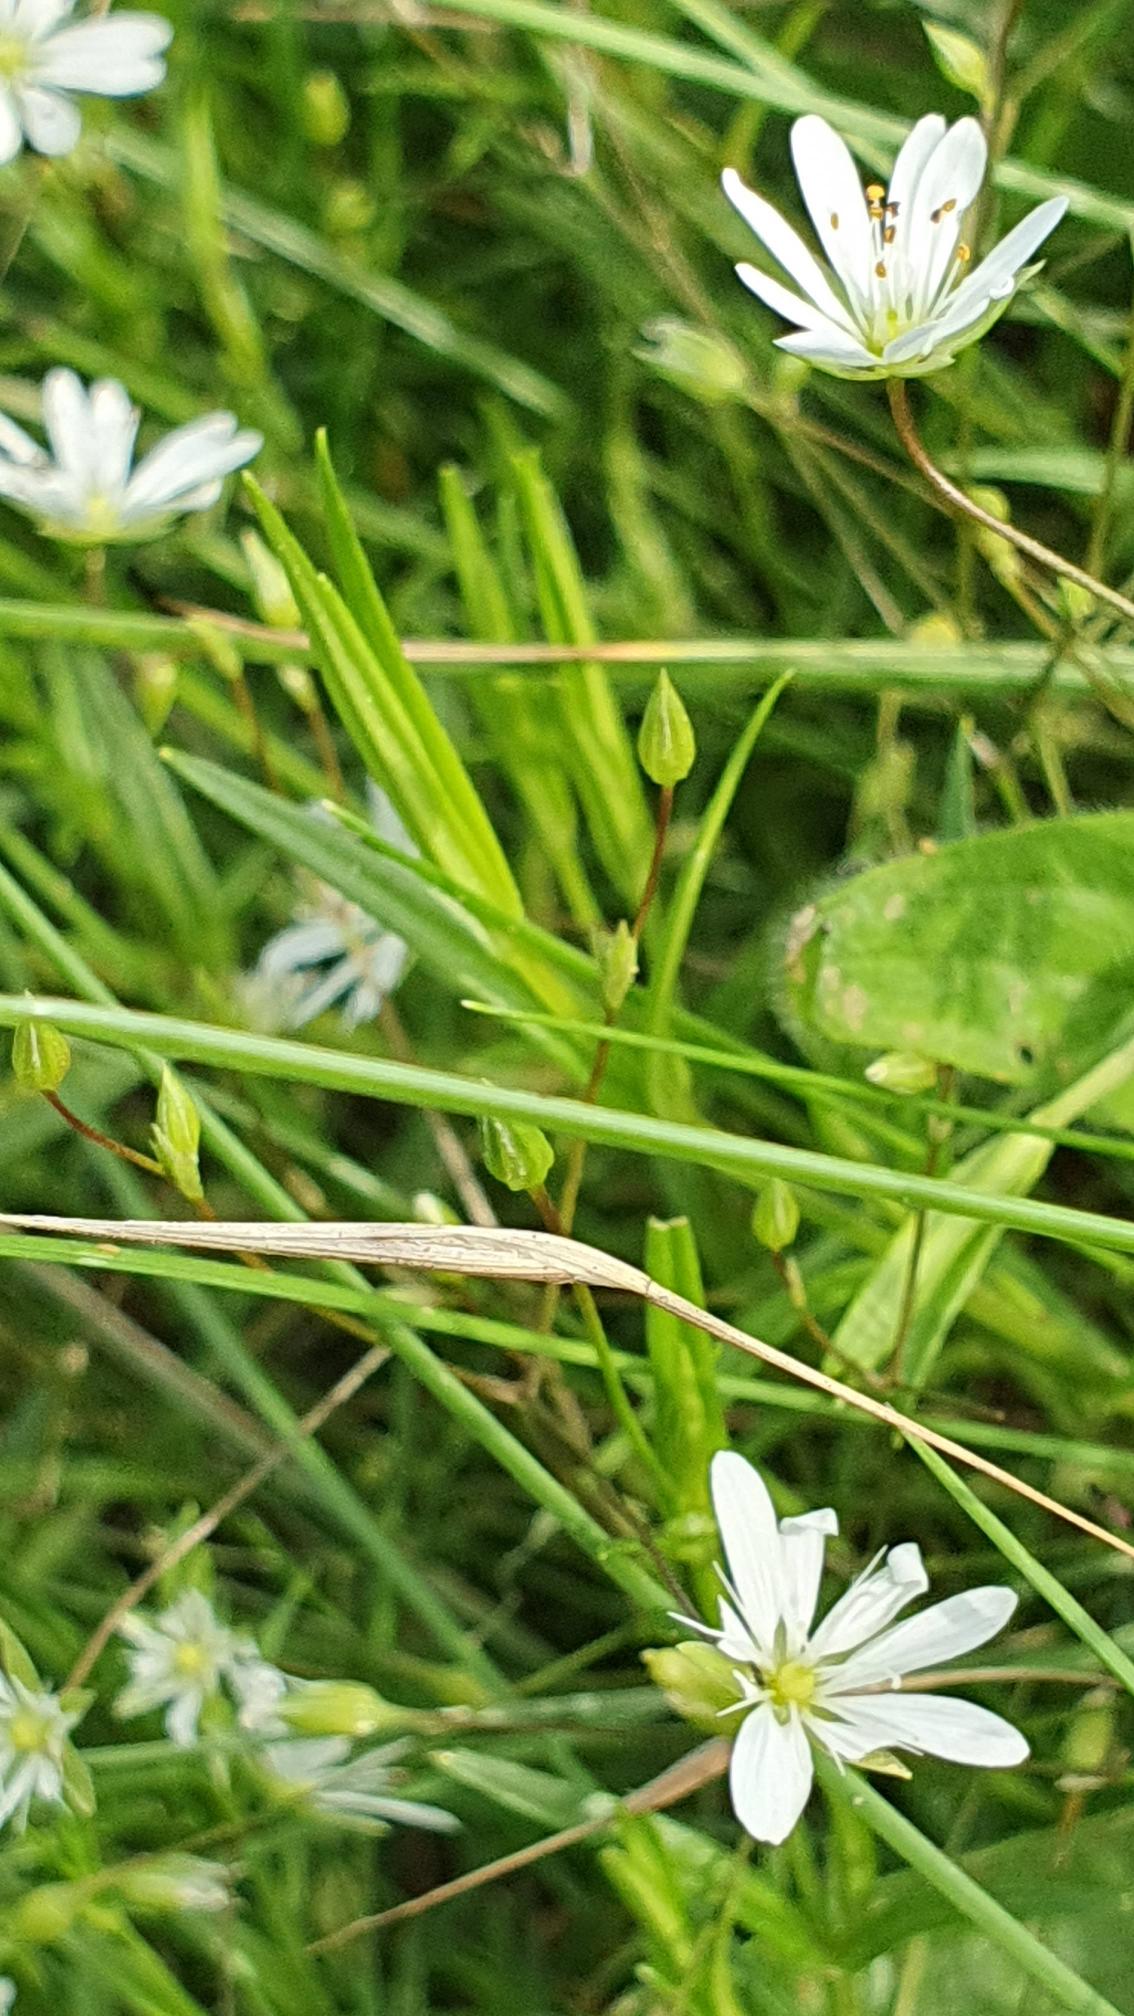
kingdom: Plantae
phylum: Tracheophyta
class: Magnoliopsida
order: Caryophyllales
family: Caryophyllaceae
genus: Stellaria
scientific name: Stellaria graminea
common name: Græsbladet fladstjerne
